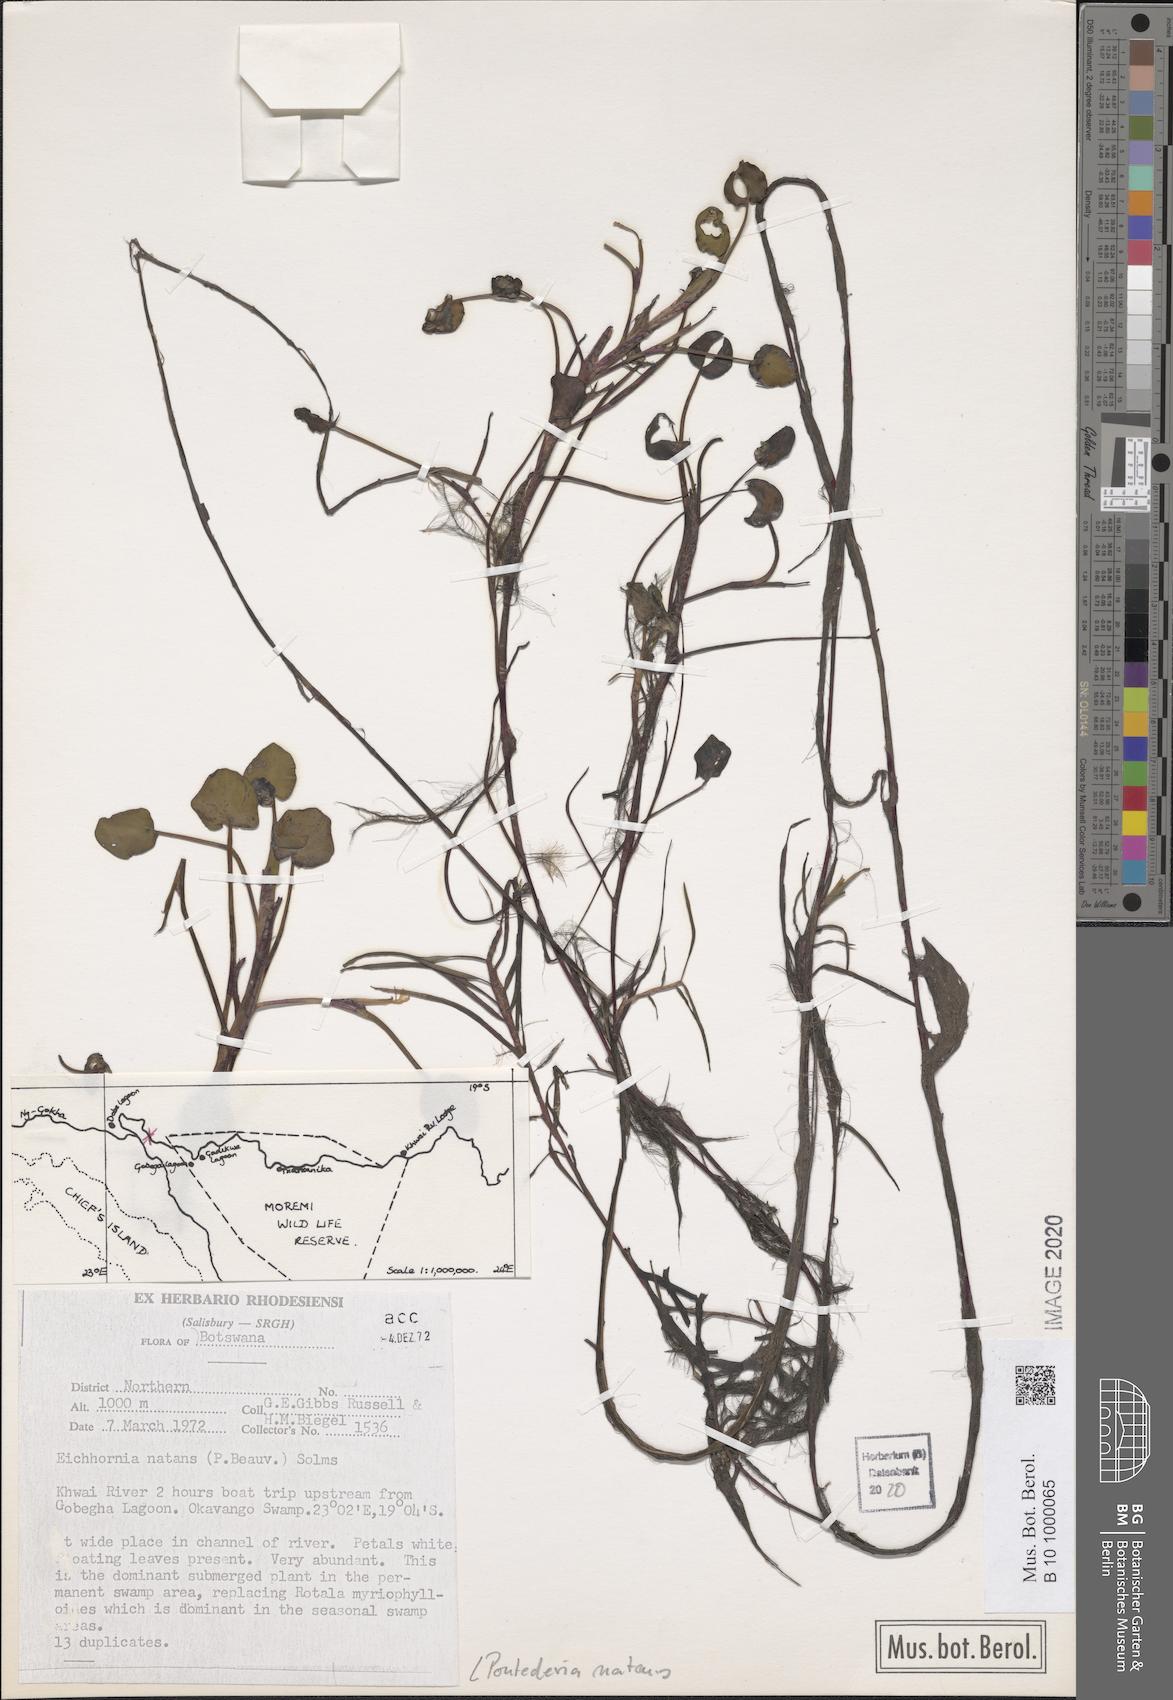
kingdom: Plantae
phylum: Tracheophyta
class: Liliopsida
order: Commelinales
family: Pontederiaceae
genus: Pontederia
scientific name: Pontederia natans
